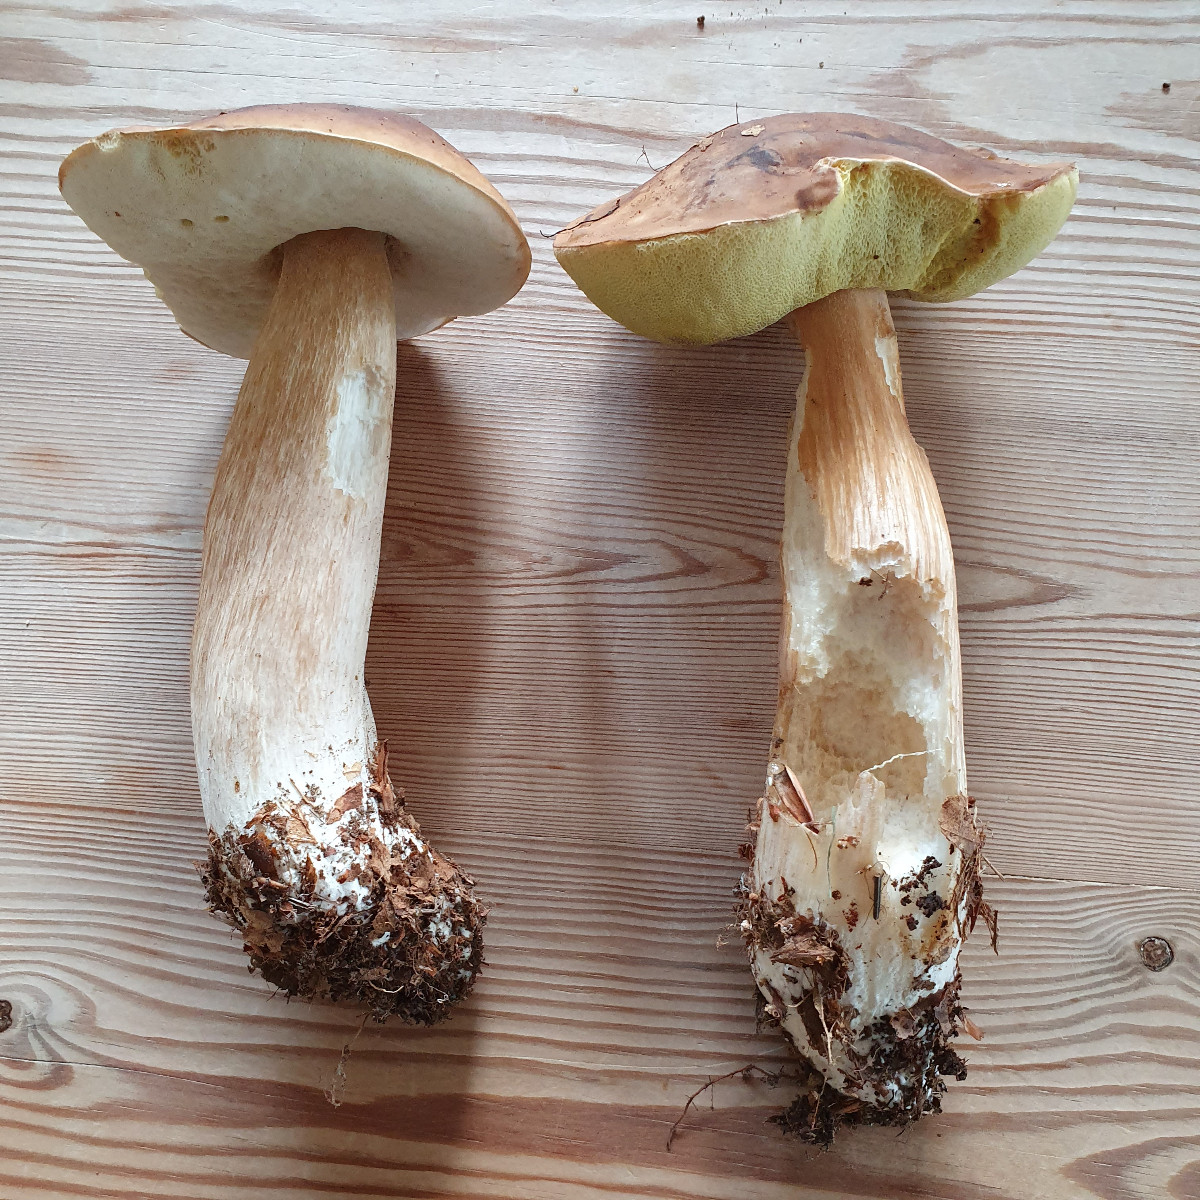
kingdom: Fungi
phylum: Basidiomycota
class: Agaricomycetes
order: Boletales
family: Boletaceae
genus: Boletus
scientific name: Boletus edulis
